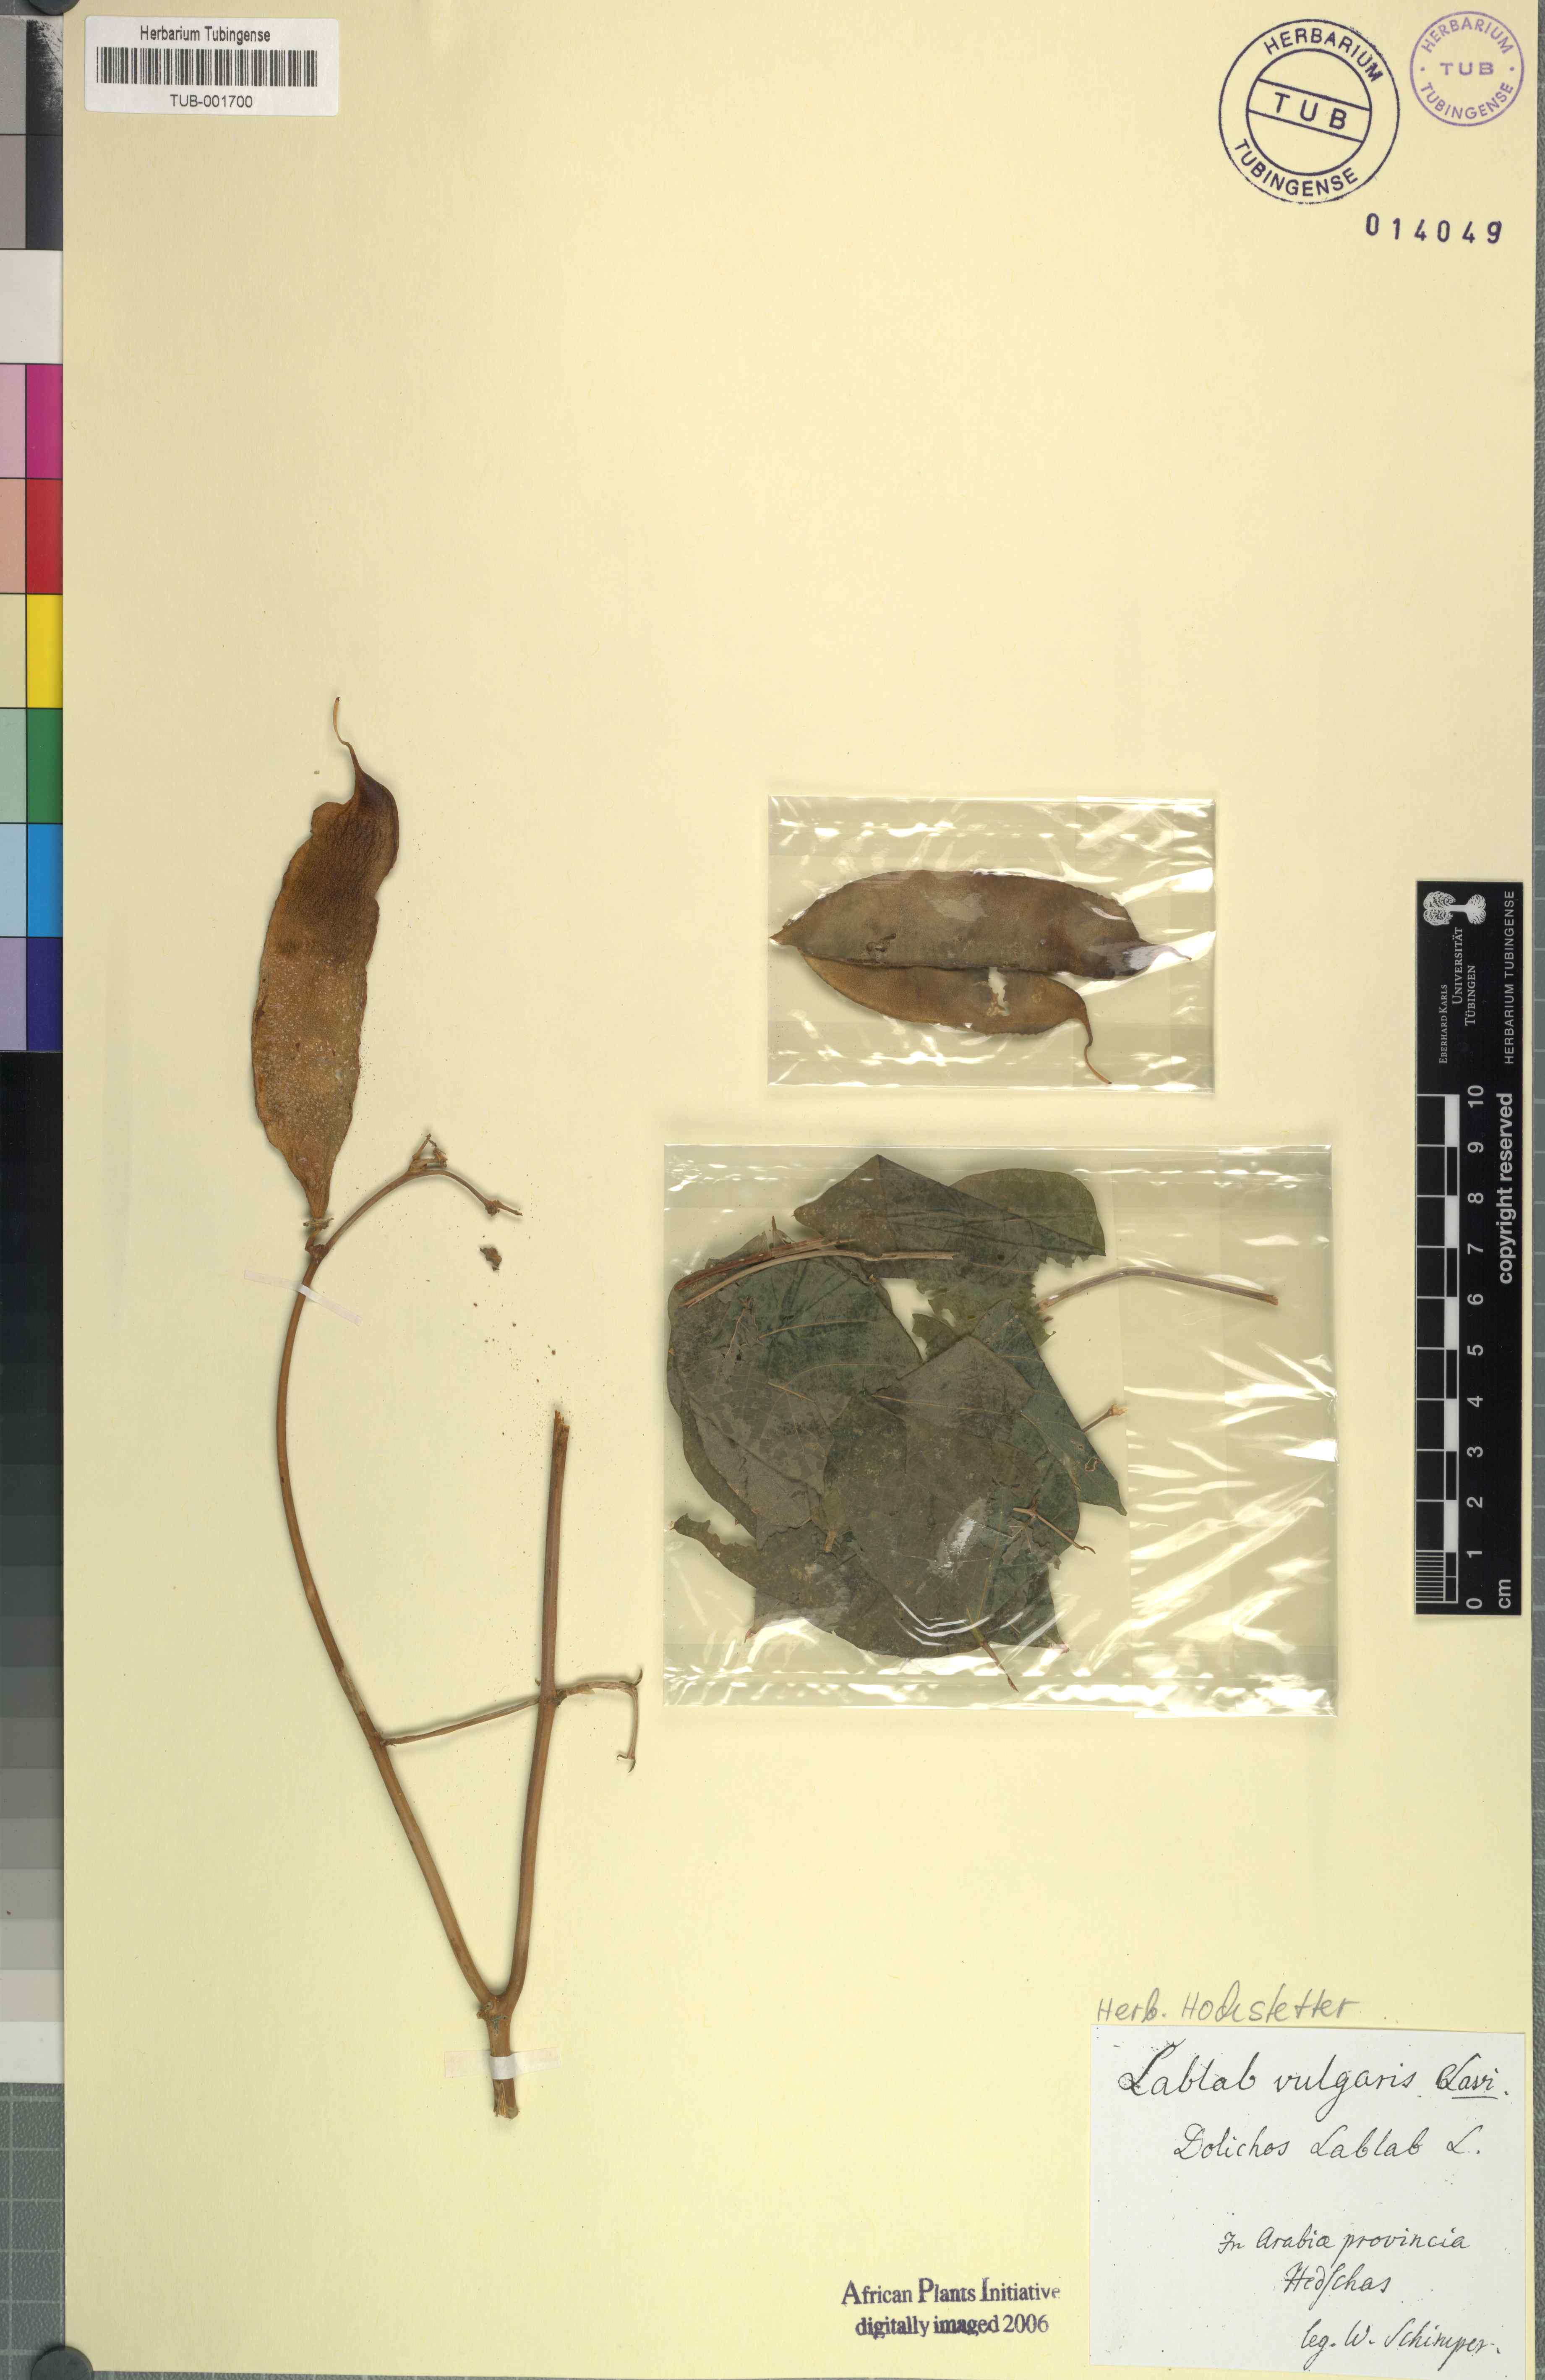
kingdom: Plantae
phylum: Tracheophyta
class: Magnoliopsida
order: Fabales
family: Fabaceae
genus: Lablab
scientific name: Lablab purpureus
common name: Lablab-bean
